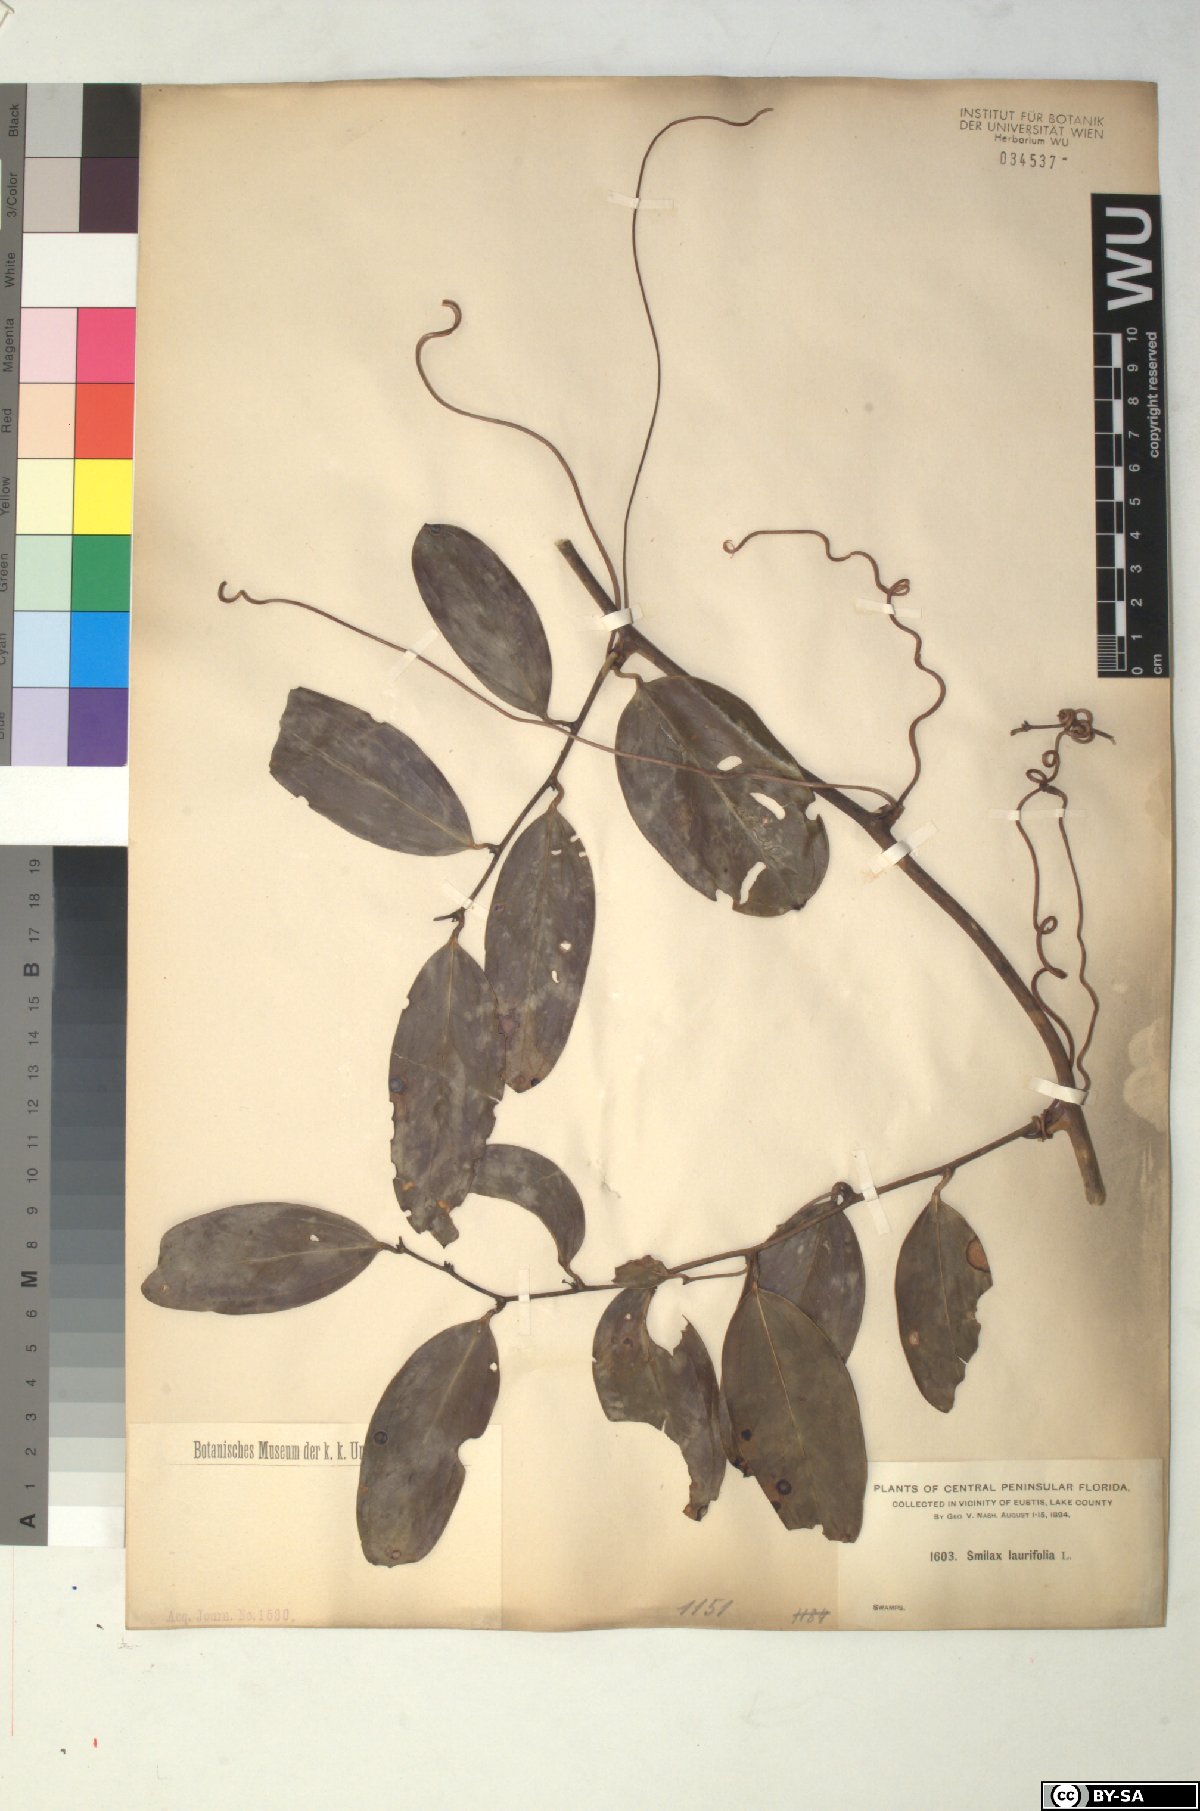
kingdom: Plantae
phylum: Tracheophyta
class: Liliopsida
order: Liliales
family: Smilacaceae
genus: Smilax
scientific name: Smilax laurifolia
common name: Bamboovine
